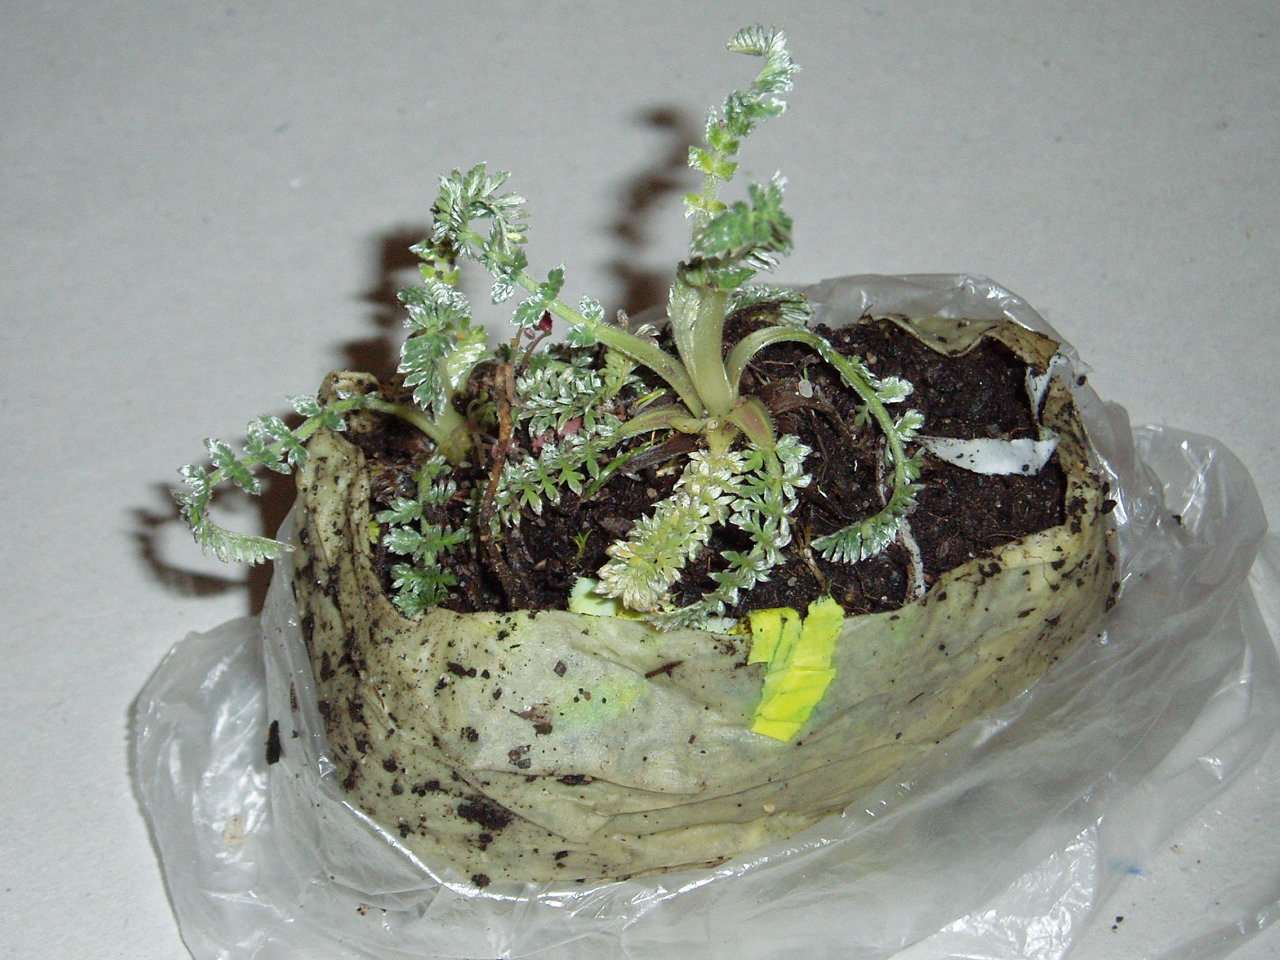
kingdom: Plantae
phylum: Tracheophyta
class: Magnoliopsida
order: Apiales
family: Apiaceae
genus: Chaerophyllum
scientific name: Chaerophyllum argenteum
